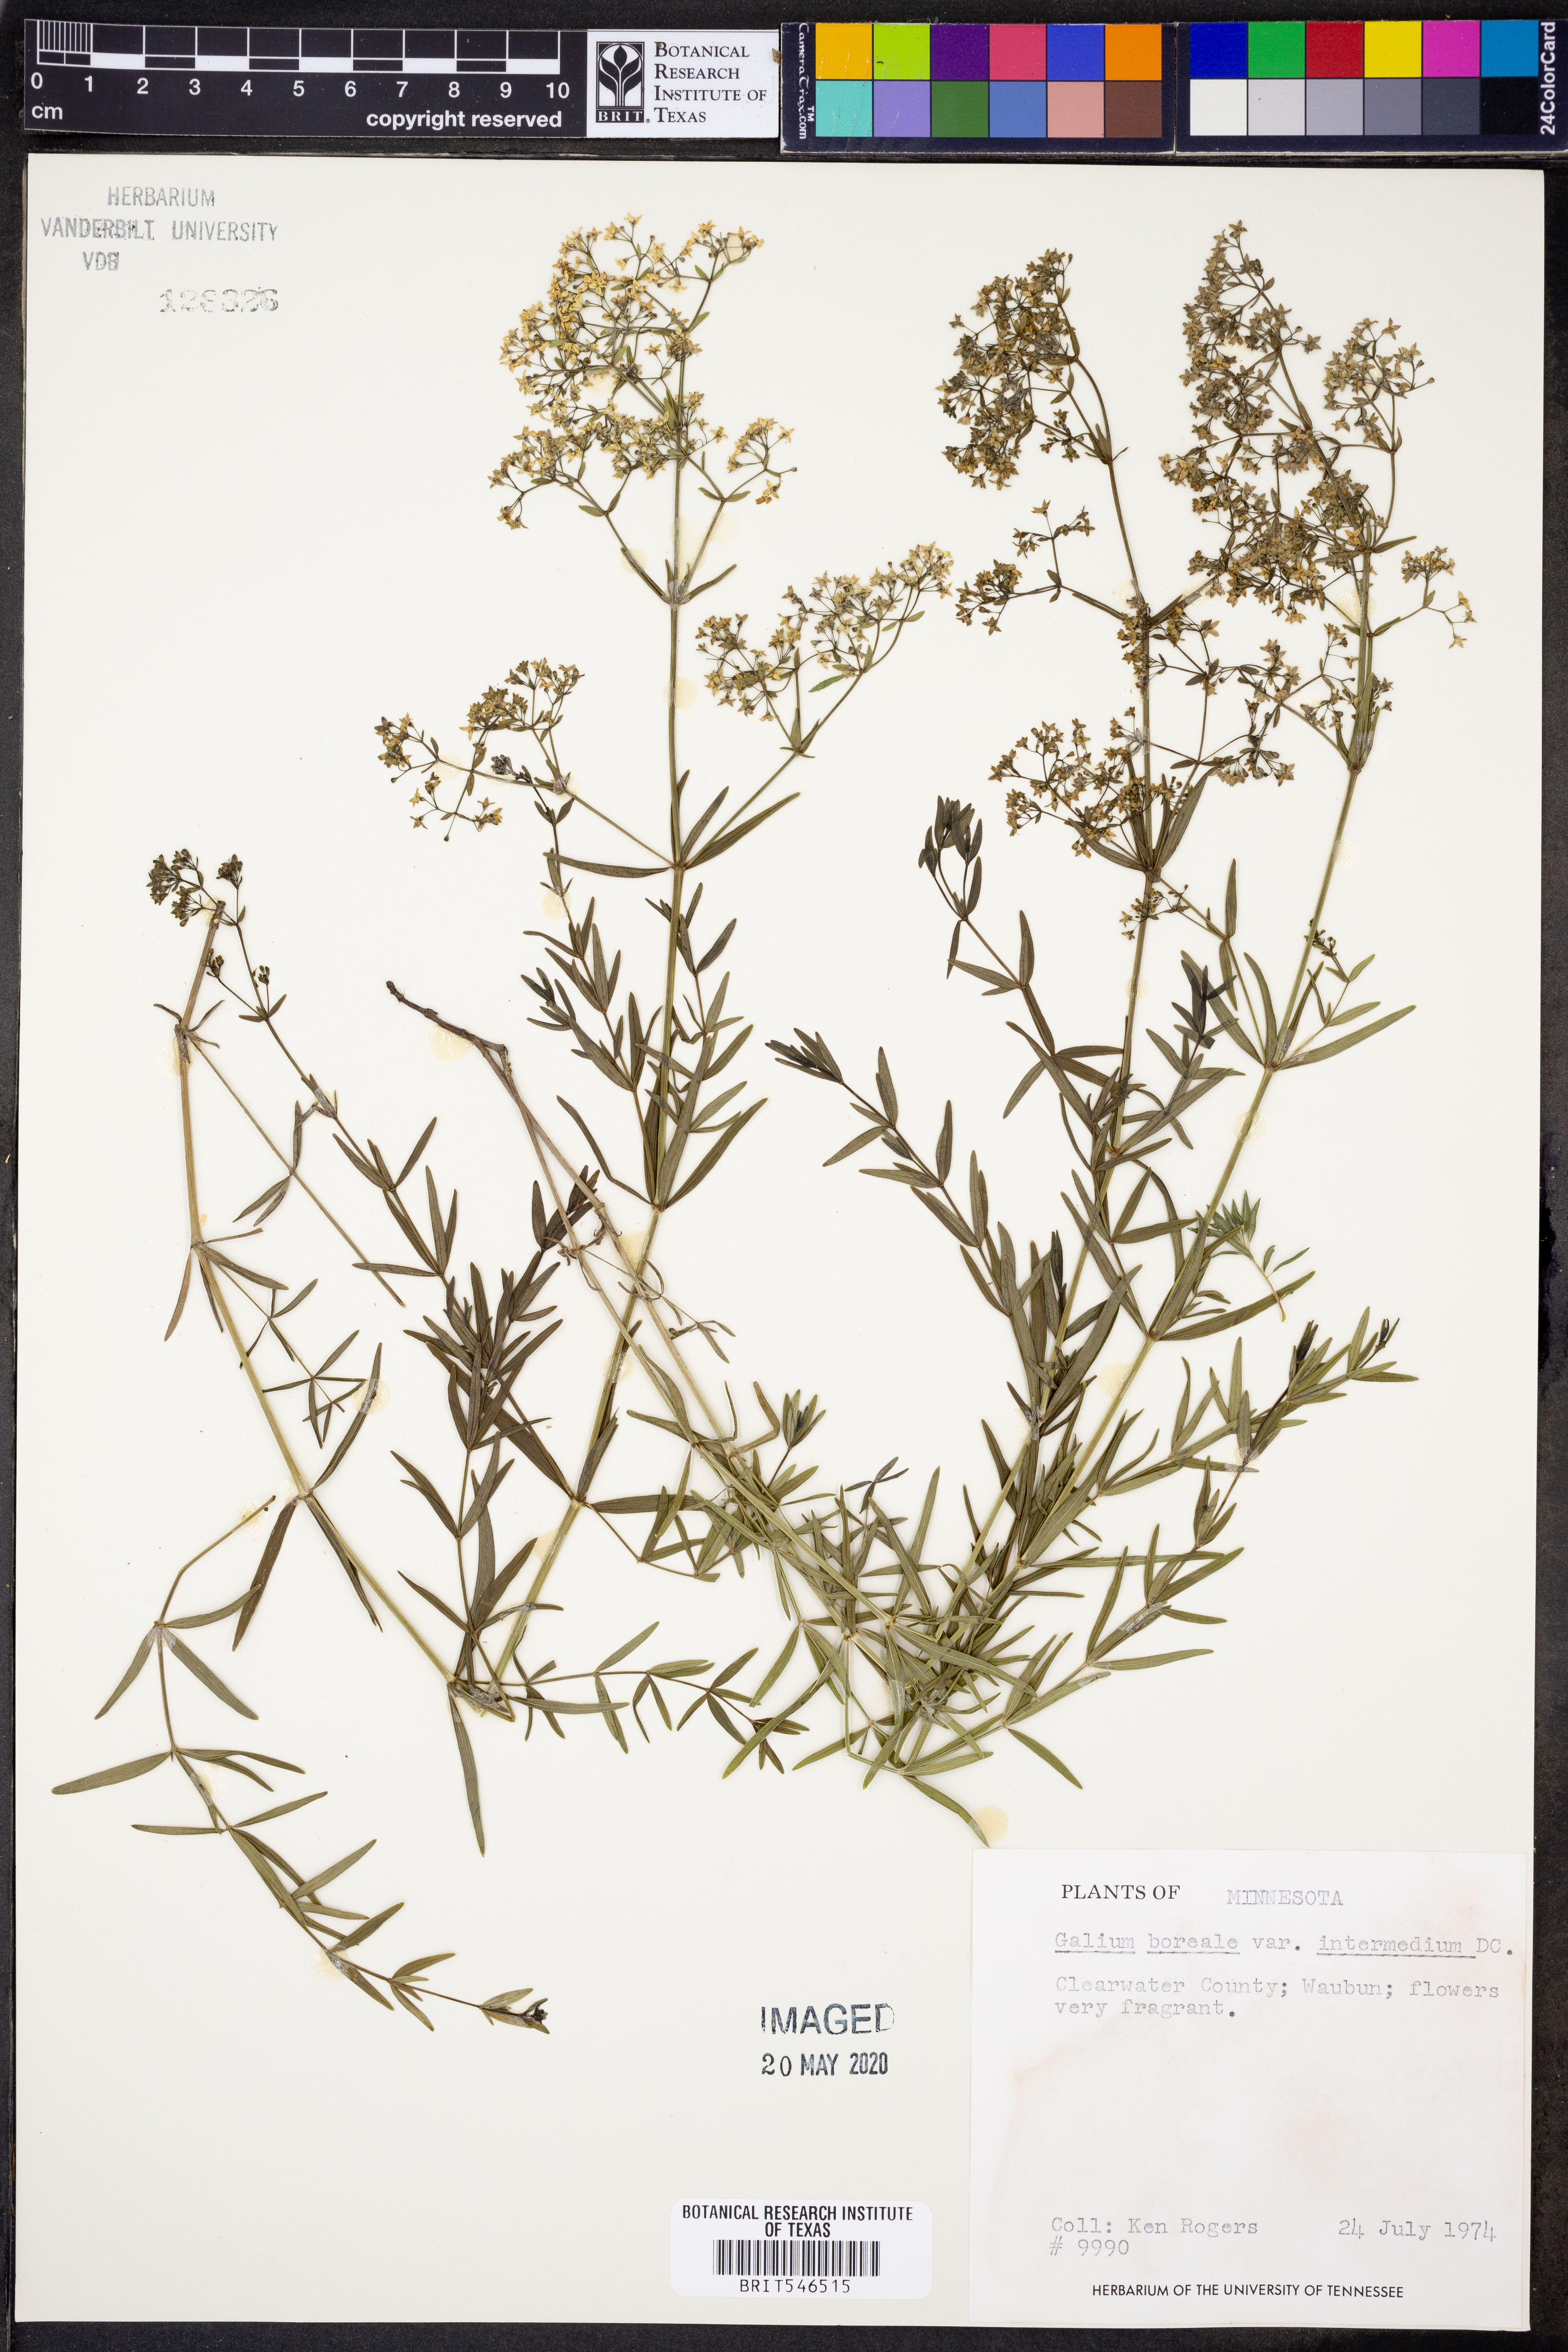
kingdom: Plantae
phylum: Tracheophyta
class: Magnoliopsida
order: Gentianales
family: Rubiaceae
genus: Galium
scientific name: Galium boreale
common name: Northern bedstraw
